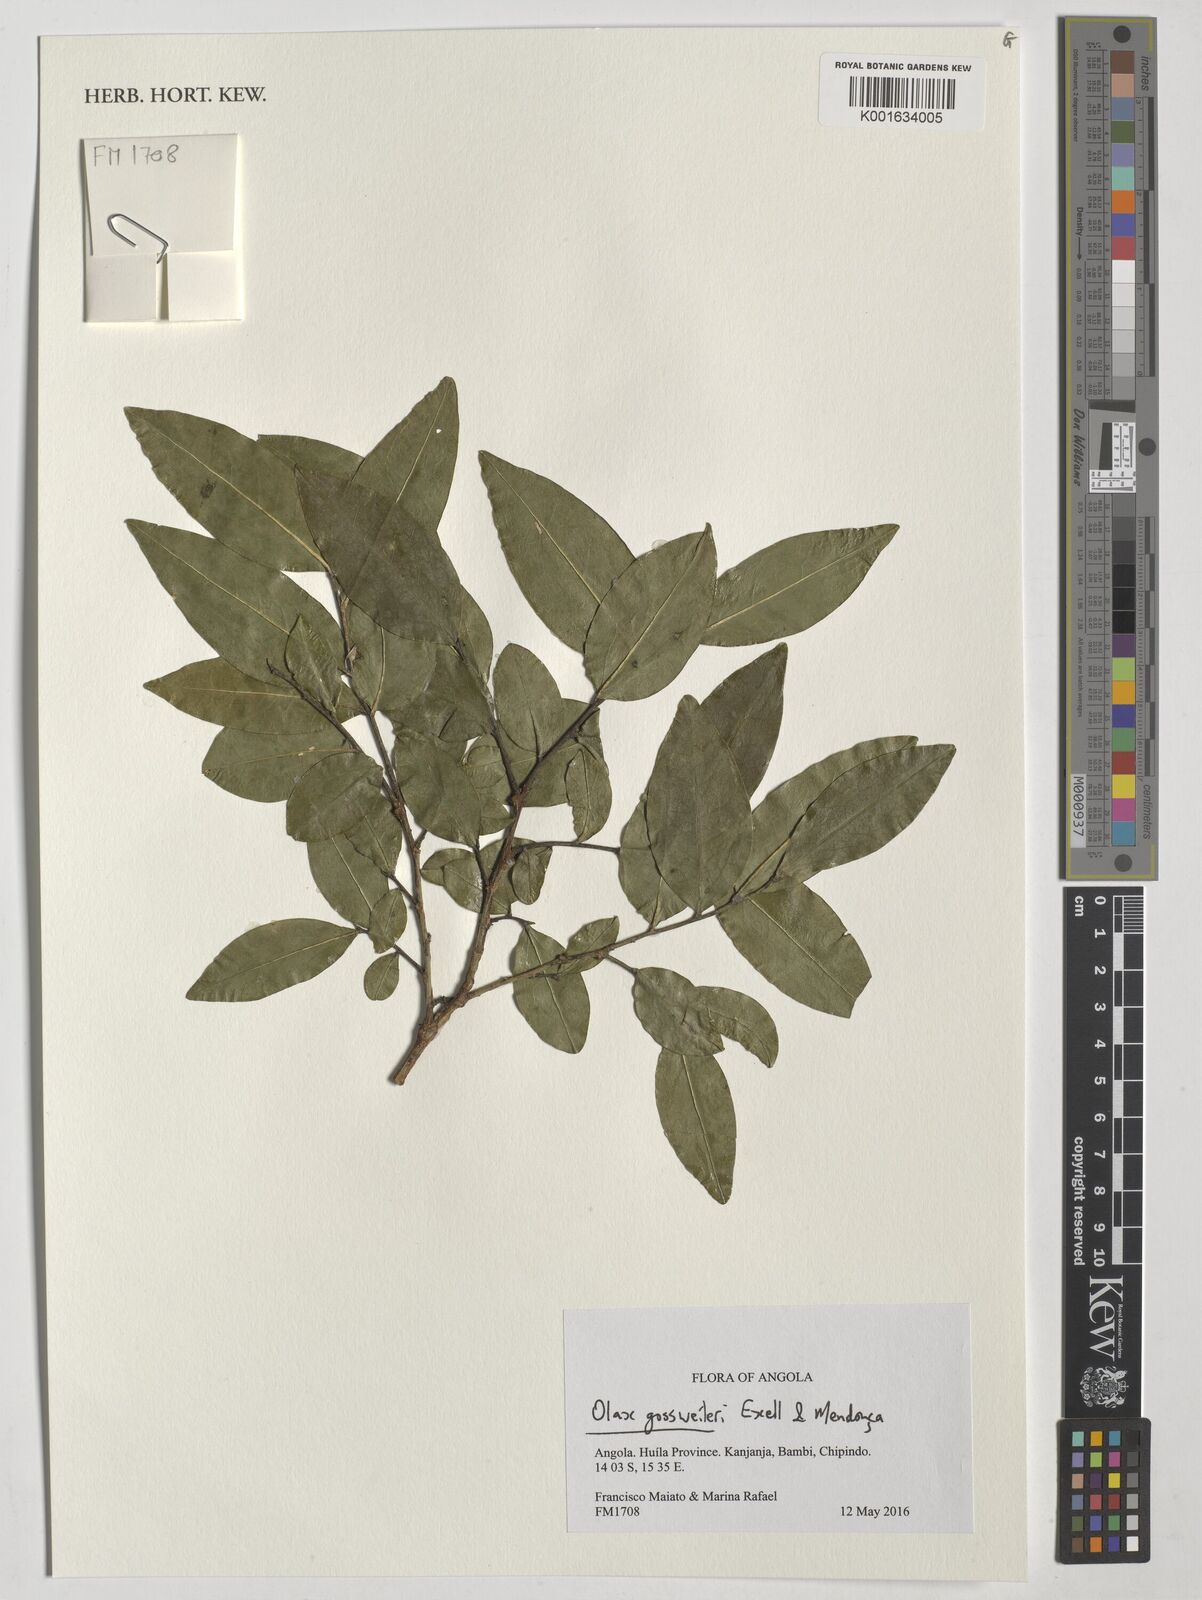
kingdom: Plantae
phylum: Tracheophyta
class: Magnoliopsida
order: Santalales
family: Olacaceae
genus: Olax
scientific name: Olax gossweileri
